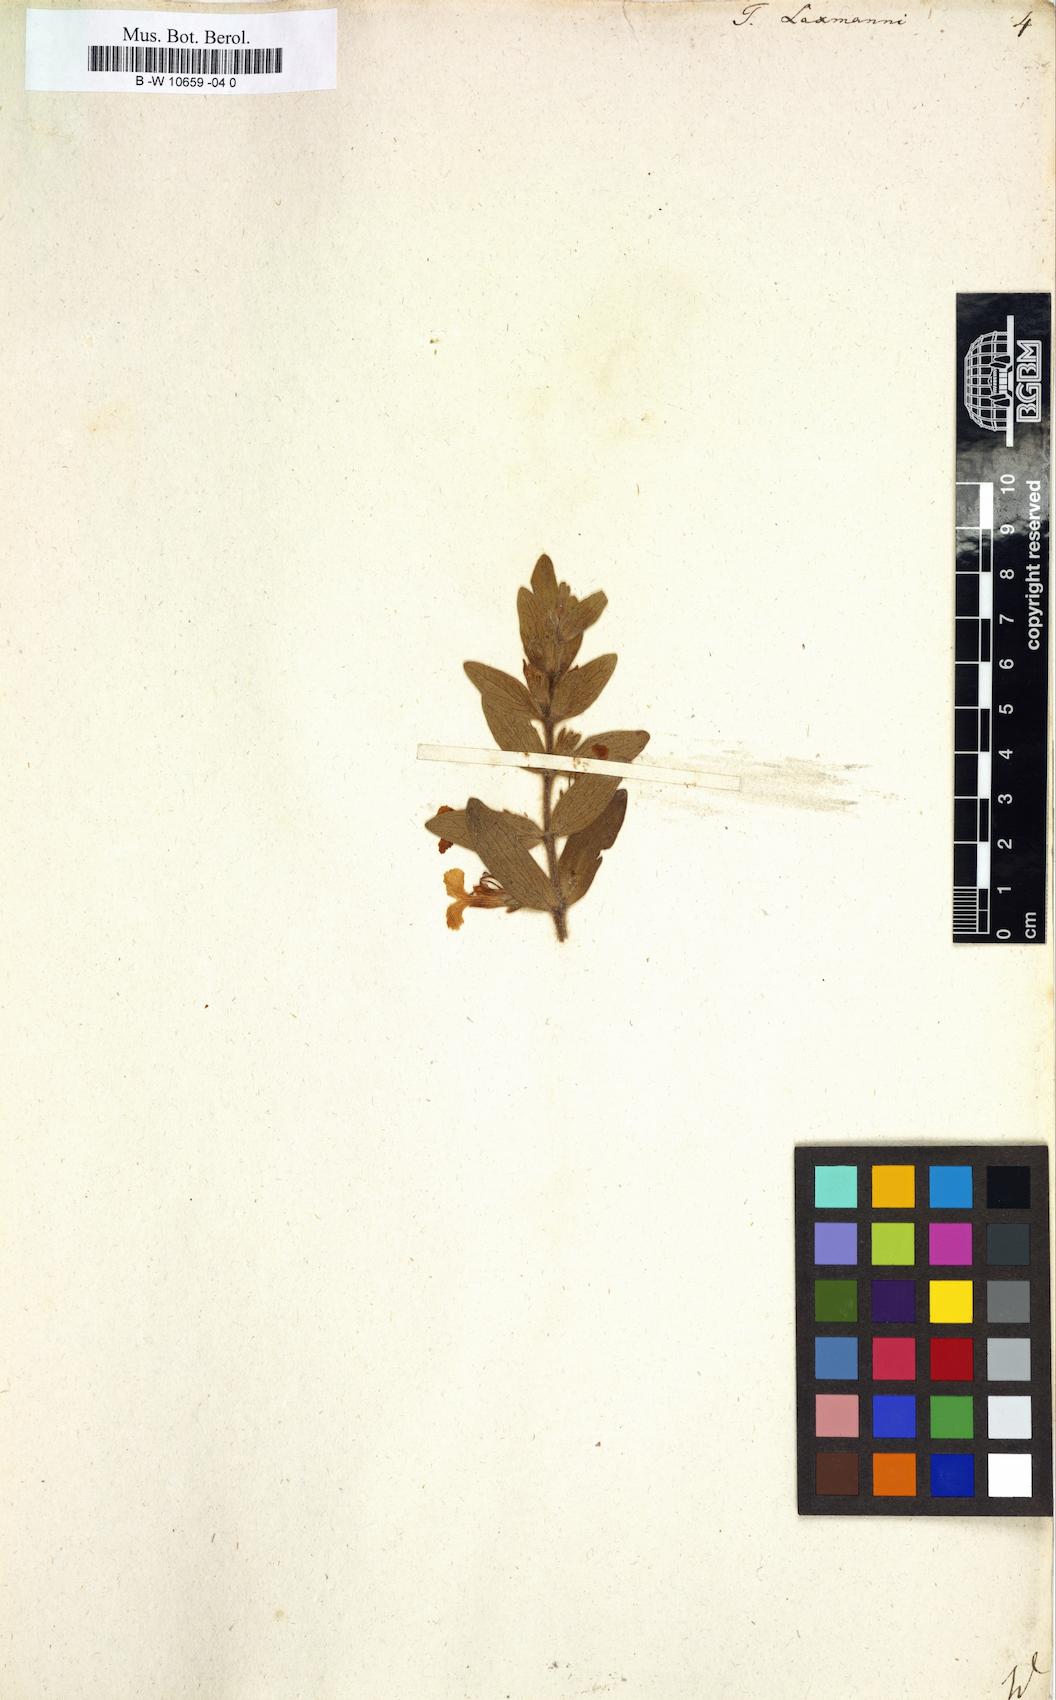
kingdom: Plantae
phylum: Tracheophyta
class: Magnoliopsida
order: Lamiales
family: Lamiaceae
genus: Ajuga
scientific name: Ajuga laxmannii
